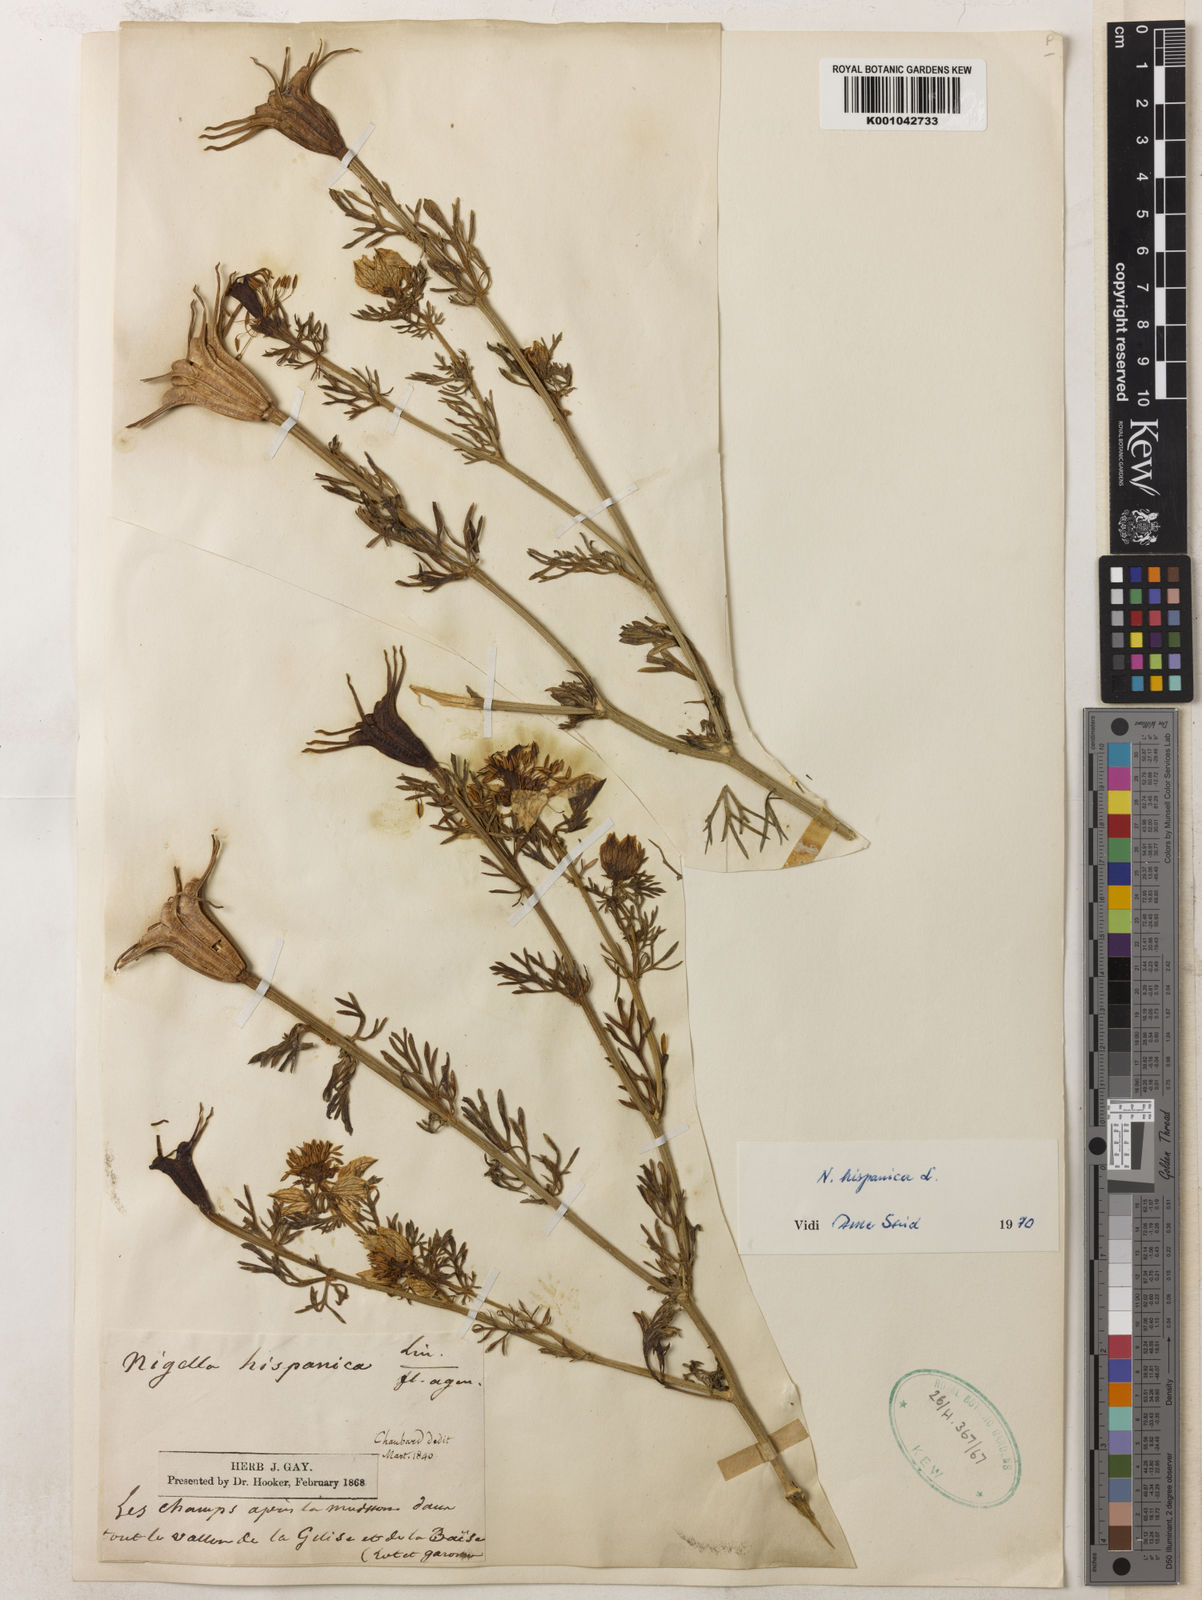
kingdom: Plantae
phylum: Tracheophyta
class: Magnoliopsida
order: Ranunculales
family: Ranunculaceae
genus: Nigella
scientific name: Nigella hispanica
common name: Fennel-flower
